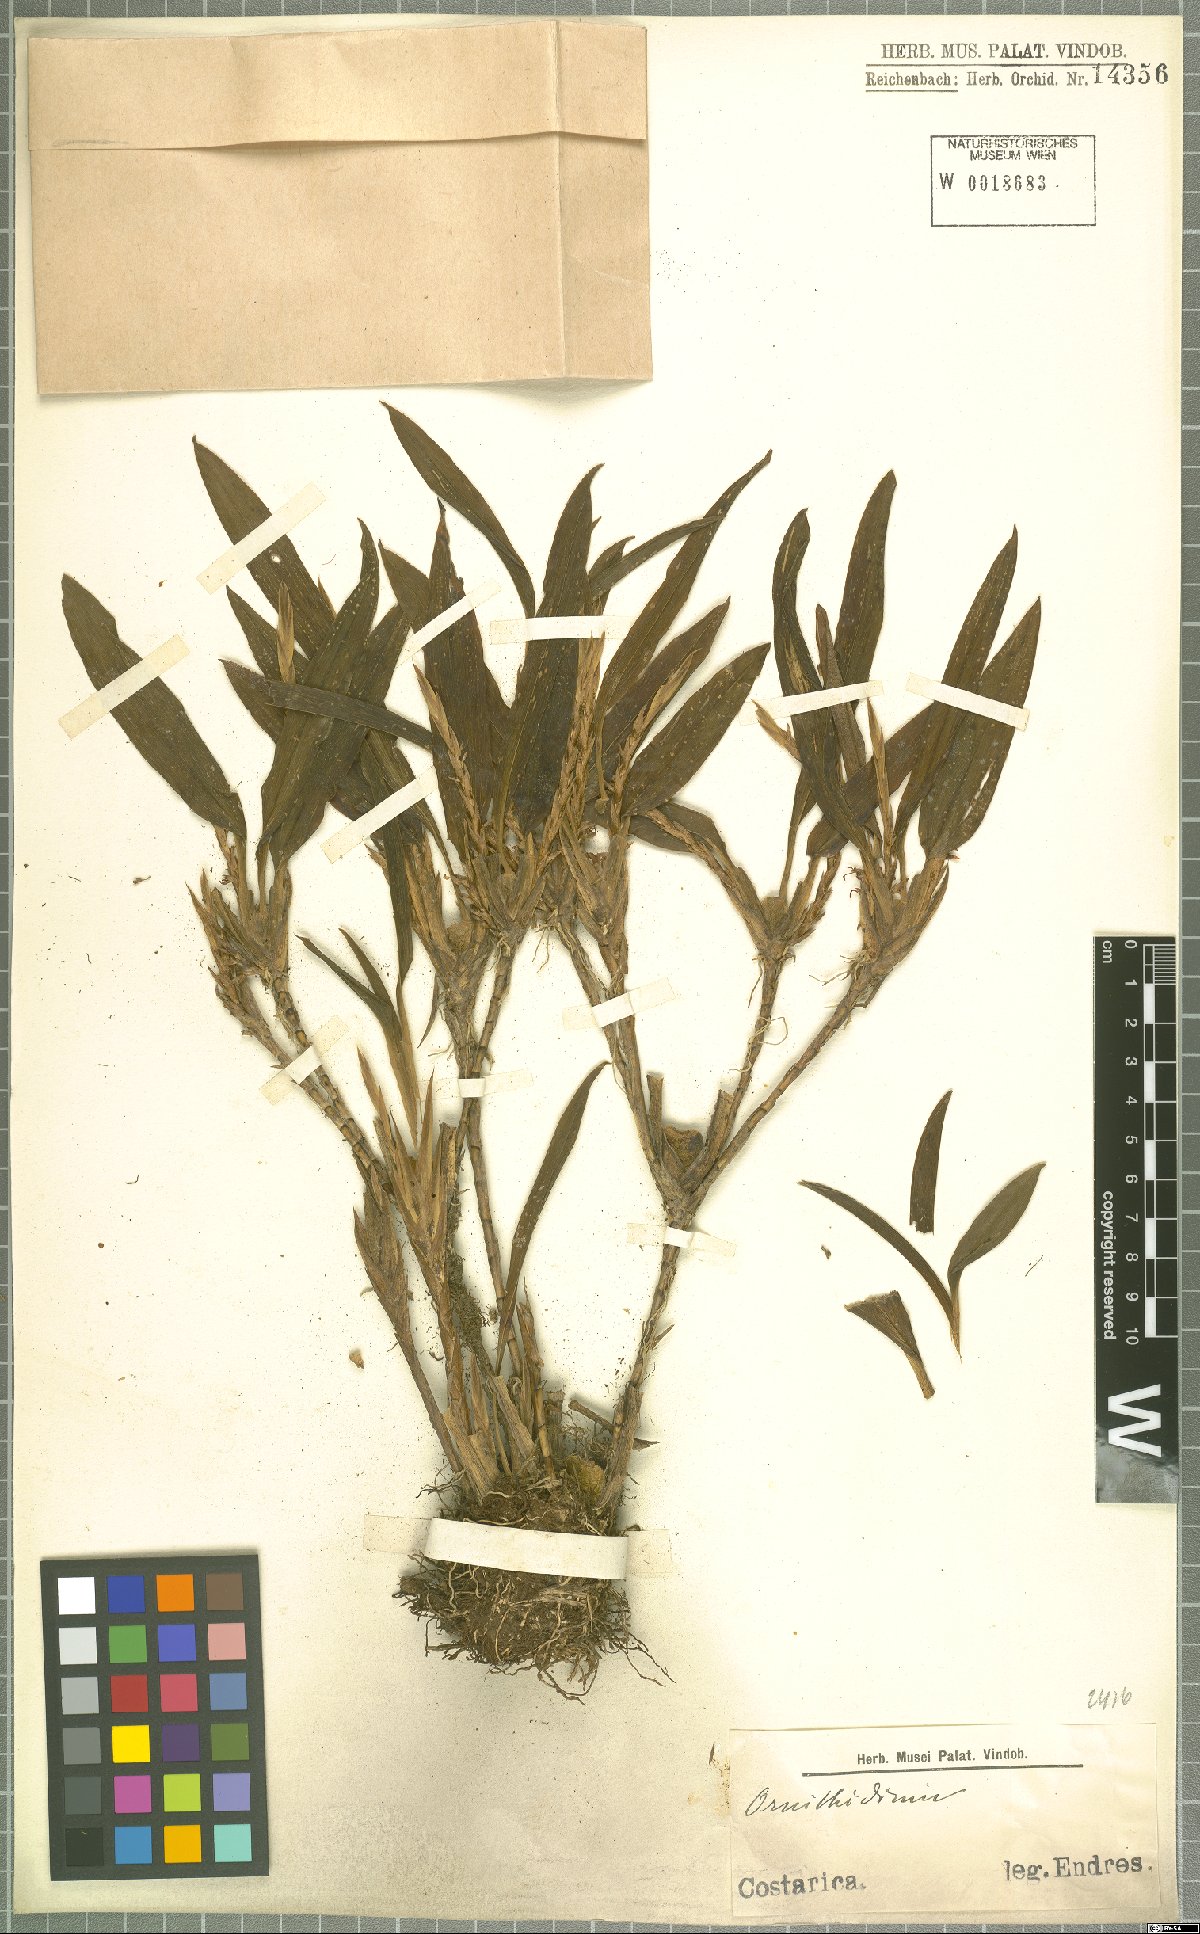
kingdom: Plantae
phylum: Tracheophyta
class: Liliopsida
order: Asparagales
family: Orchidaceae
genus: Maxillaria
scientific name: Maxillaria
